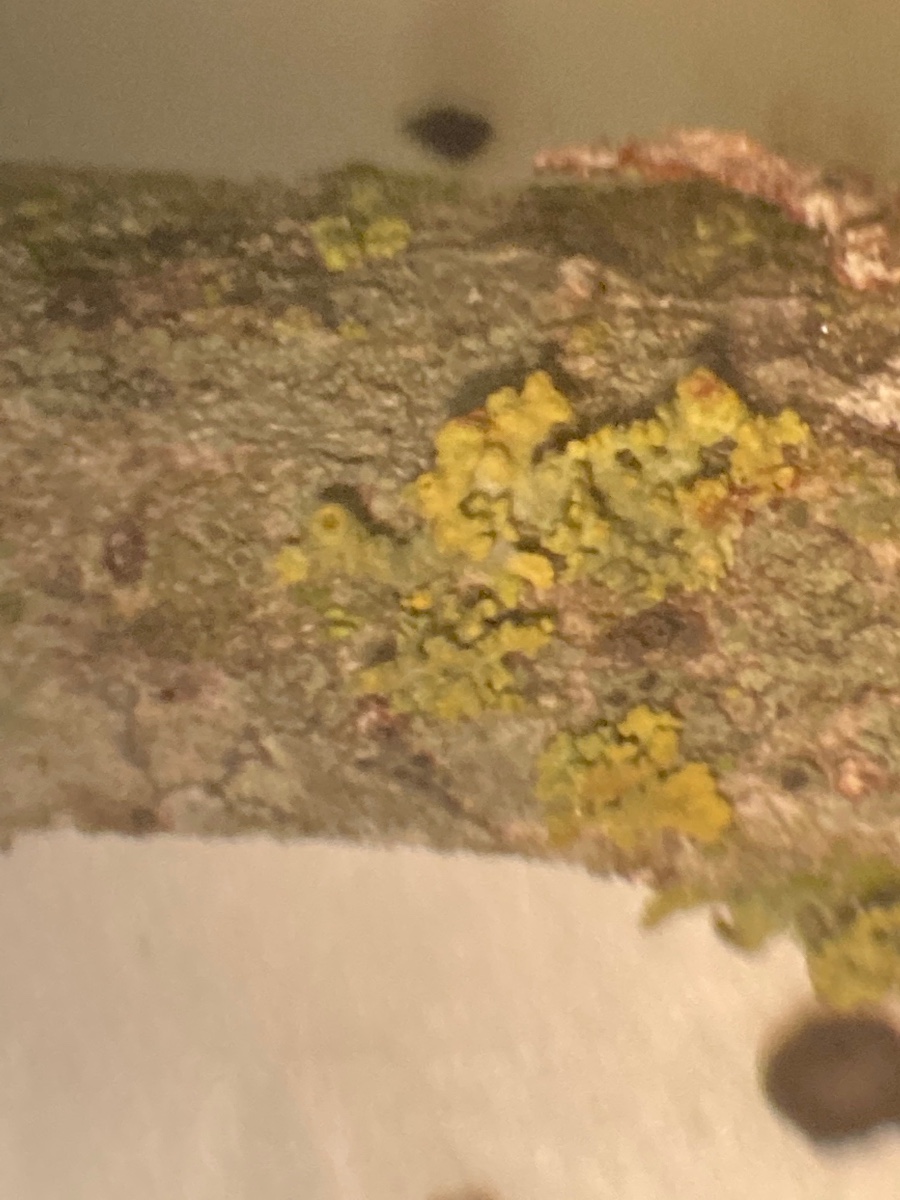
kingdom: Fungi
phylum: Ascomycota
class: Lecanoromycetes
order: Teloschistales
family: Teloschistaceae
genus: Polycauliona
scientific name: Polycauliona polycarpa
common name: mangefrugtet orangelav
